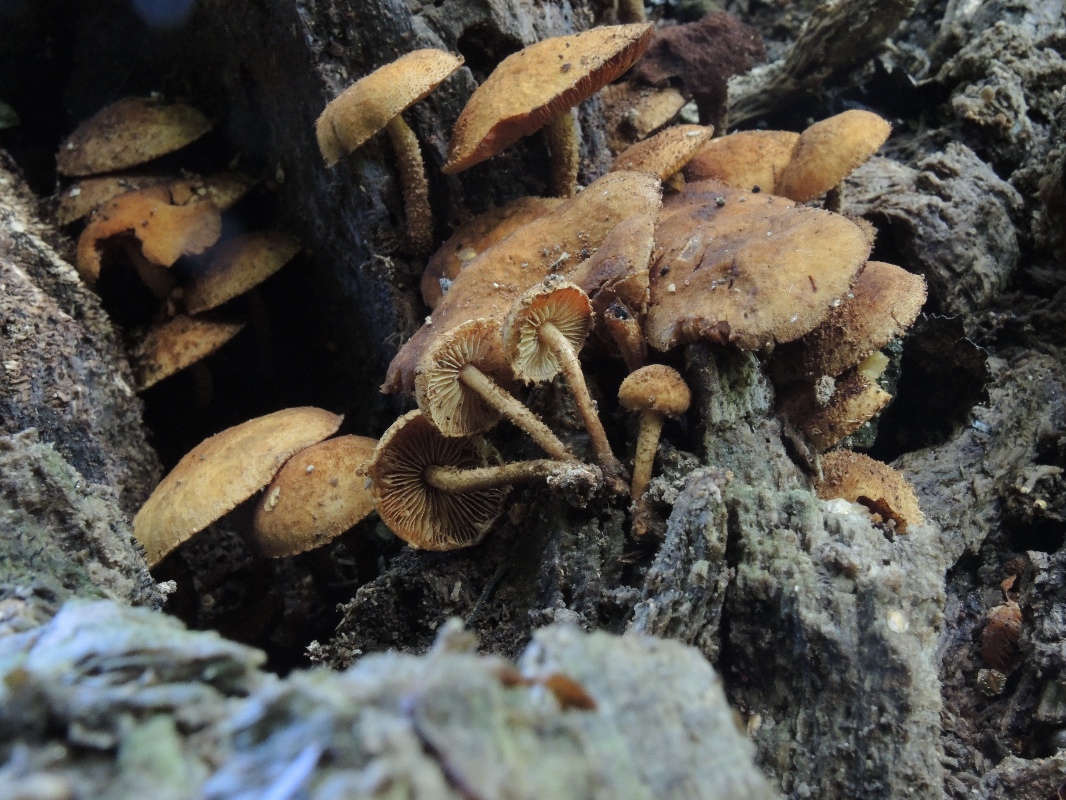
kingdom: Fungi
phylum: Basidiomycota
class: Agaricomycetes
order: Agaricales
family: Tubariaceae
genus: Flammulaster
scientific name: Flammulaster muricatus
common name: pigget grynskælhat
